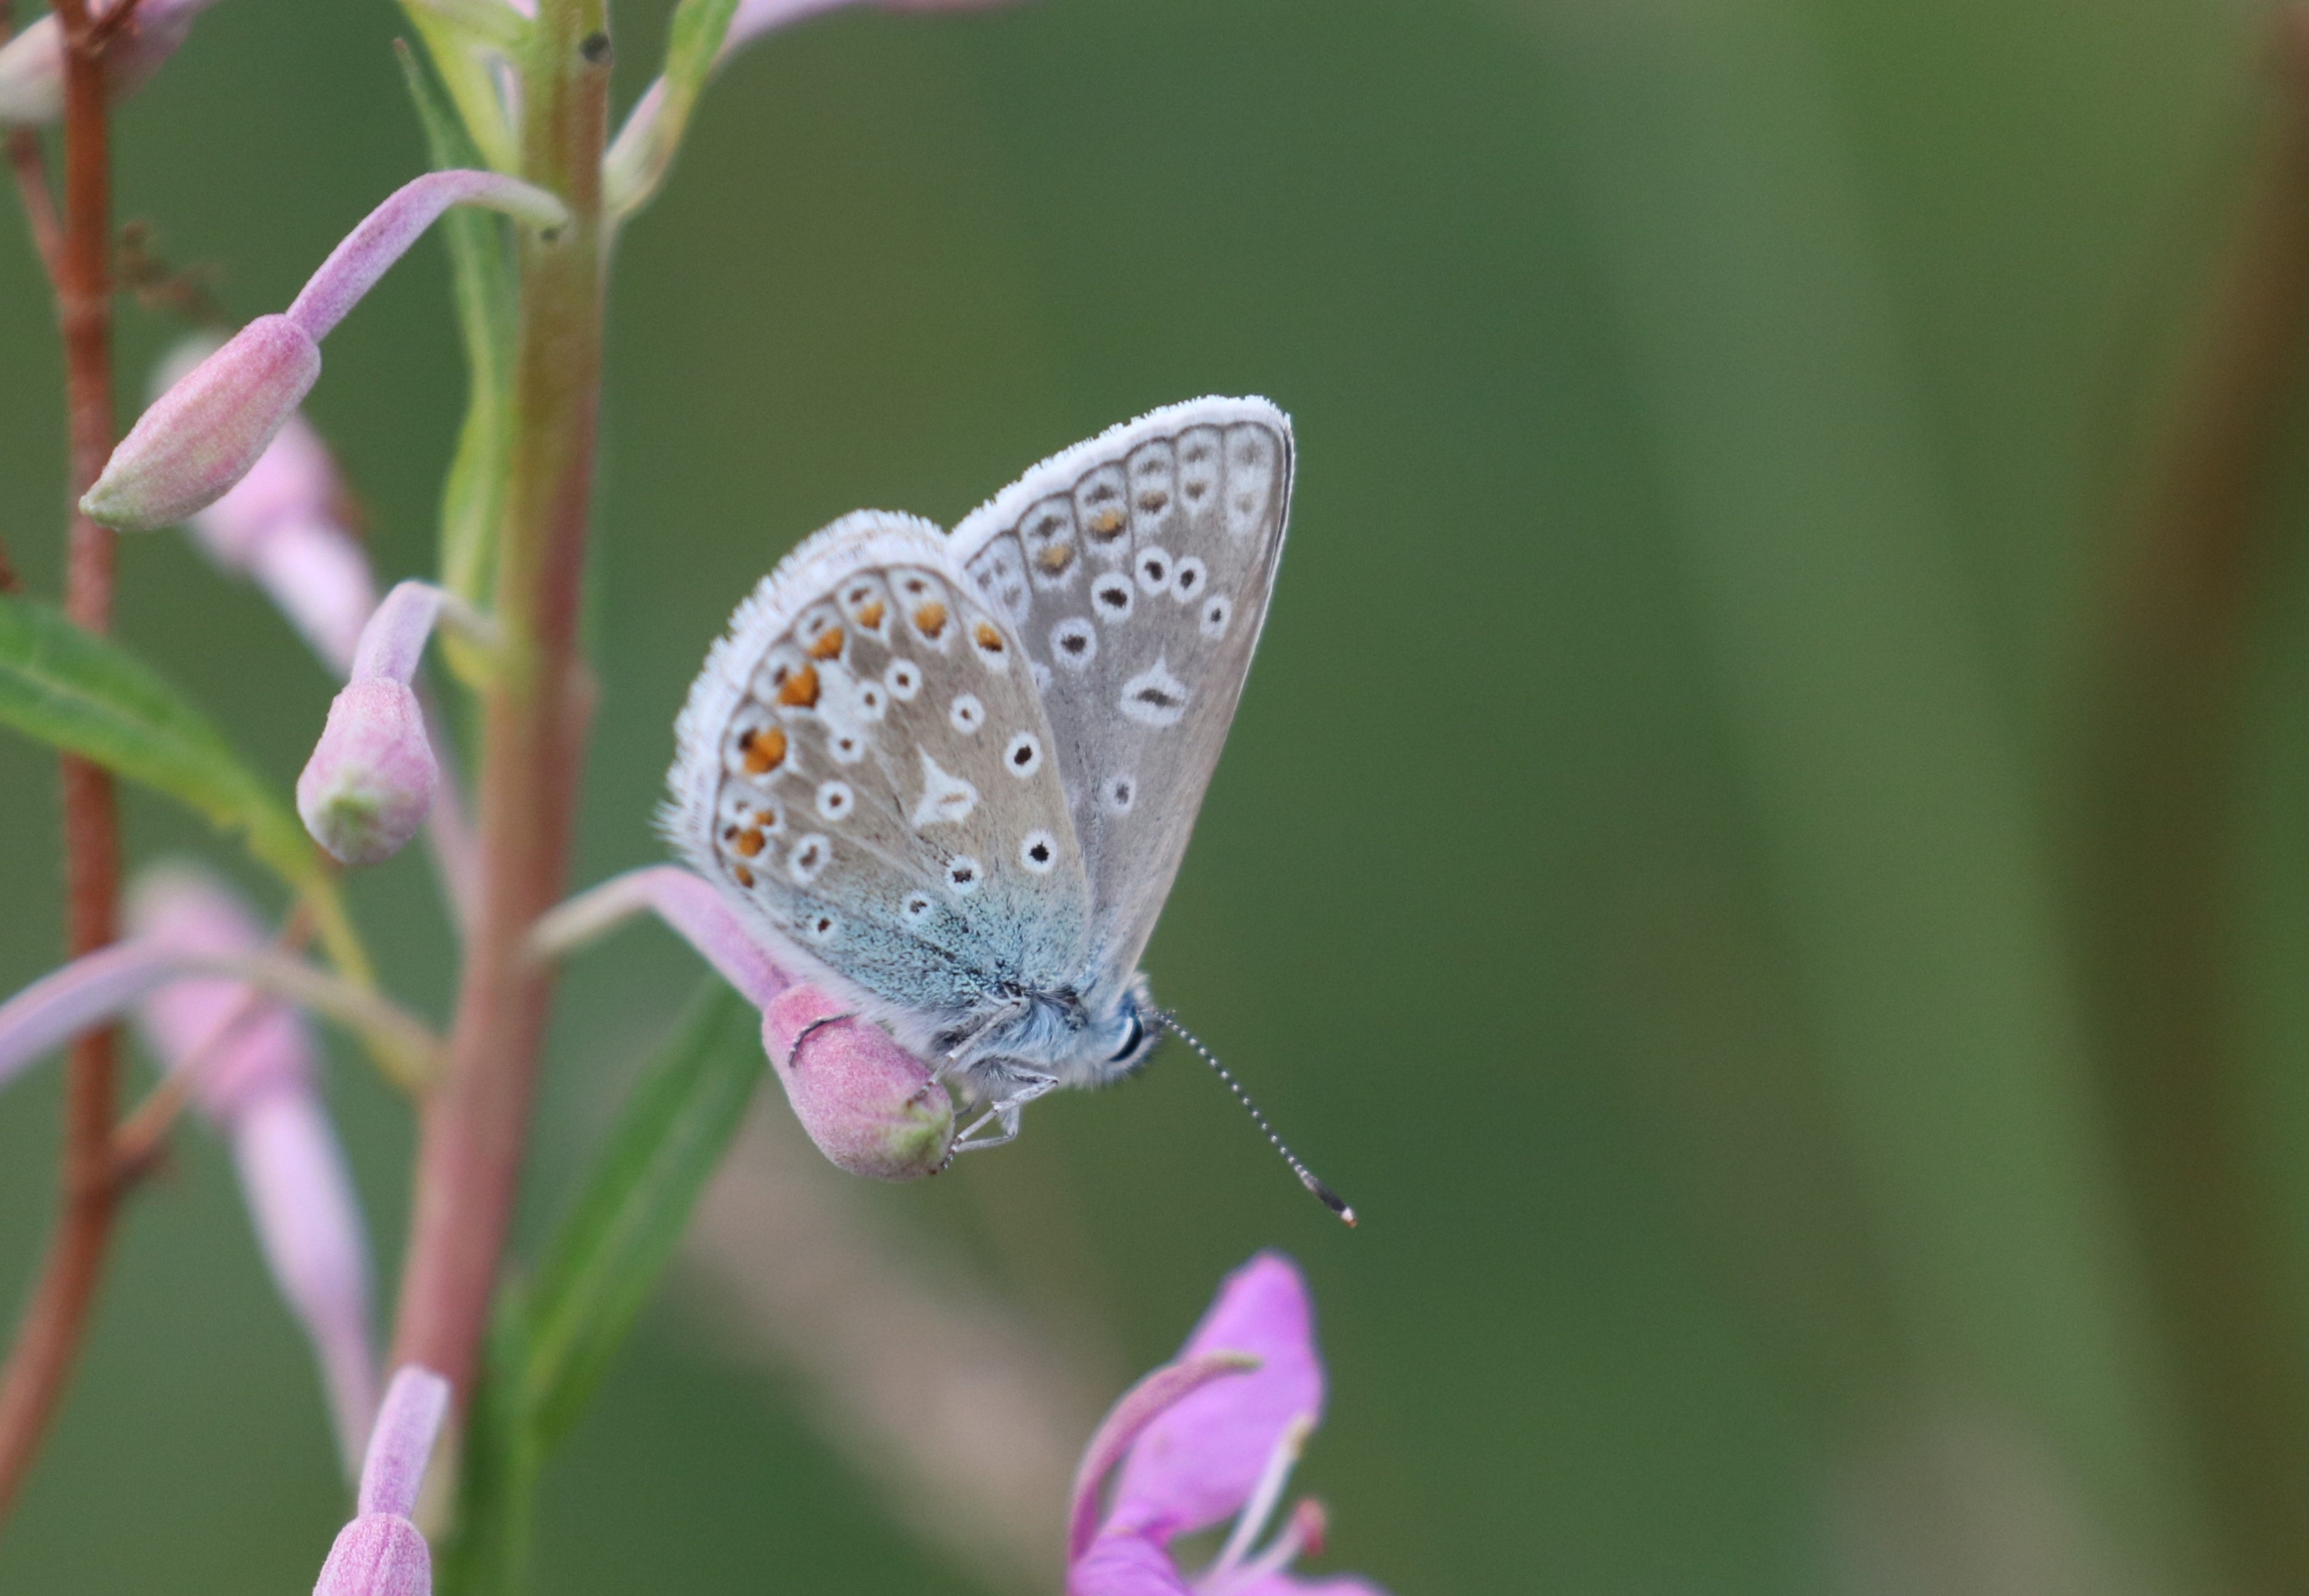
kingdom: Animalia
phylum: Arthropoda
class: Insecta
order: Lepidoptera
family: Lycaenidae
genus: Polyommatus
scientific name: Polyommatus icarus
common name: Almindelig blåfugl
